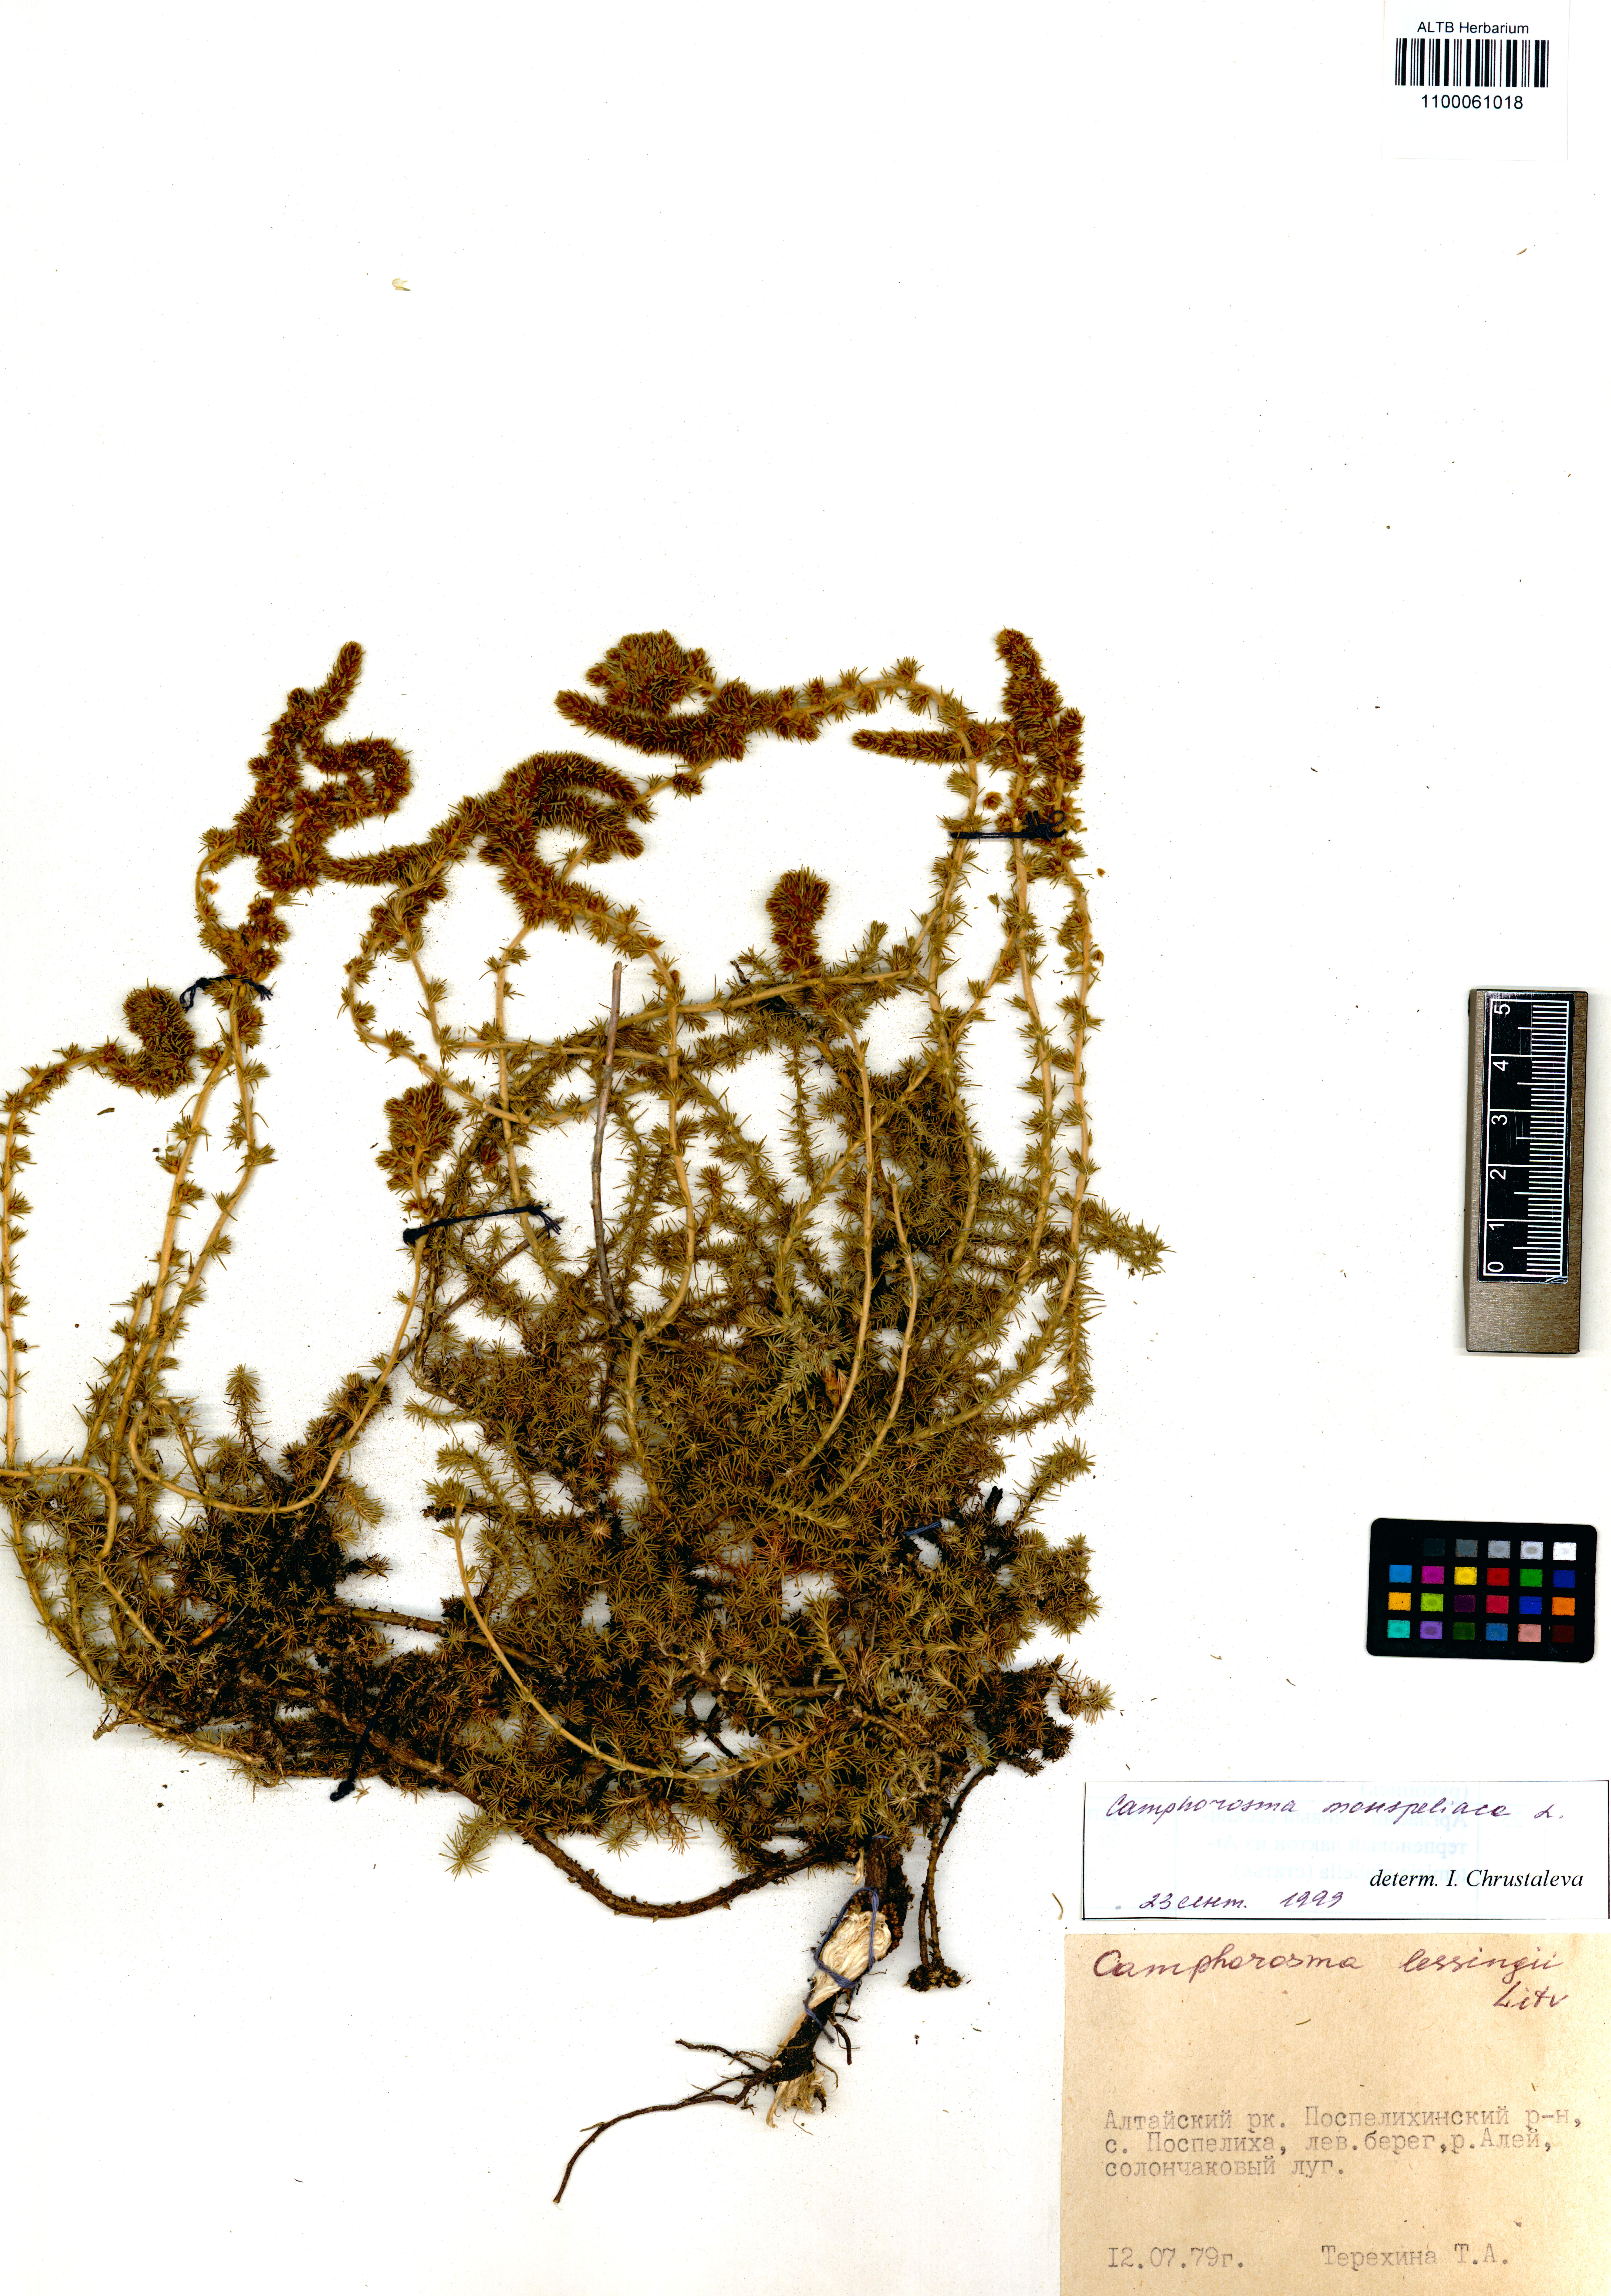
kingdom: Plantae
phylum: Tracheophyta
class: Magnoliopsida
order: Caryophyllales
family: Amaranthaceae
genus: Camphorosma
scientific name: Camphorosma monspeliaca
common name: Camphorfume
